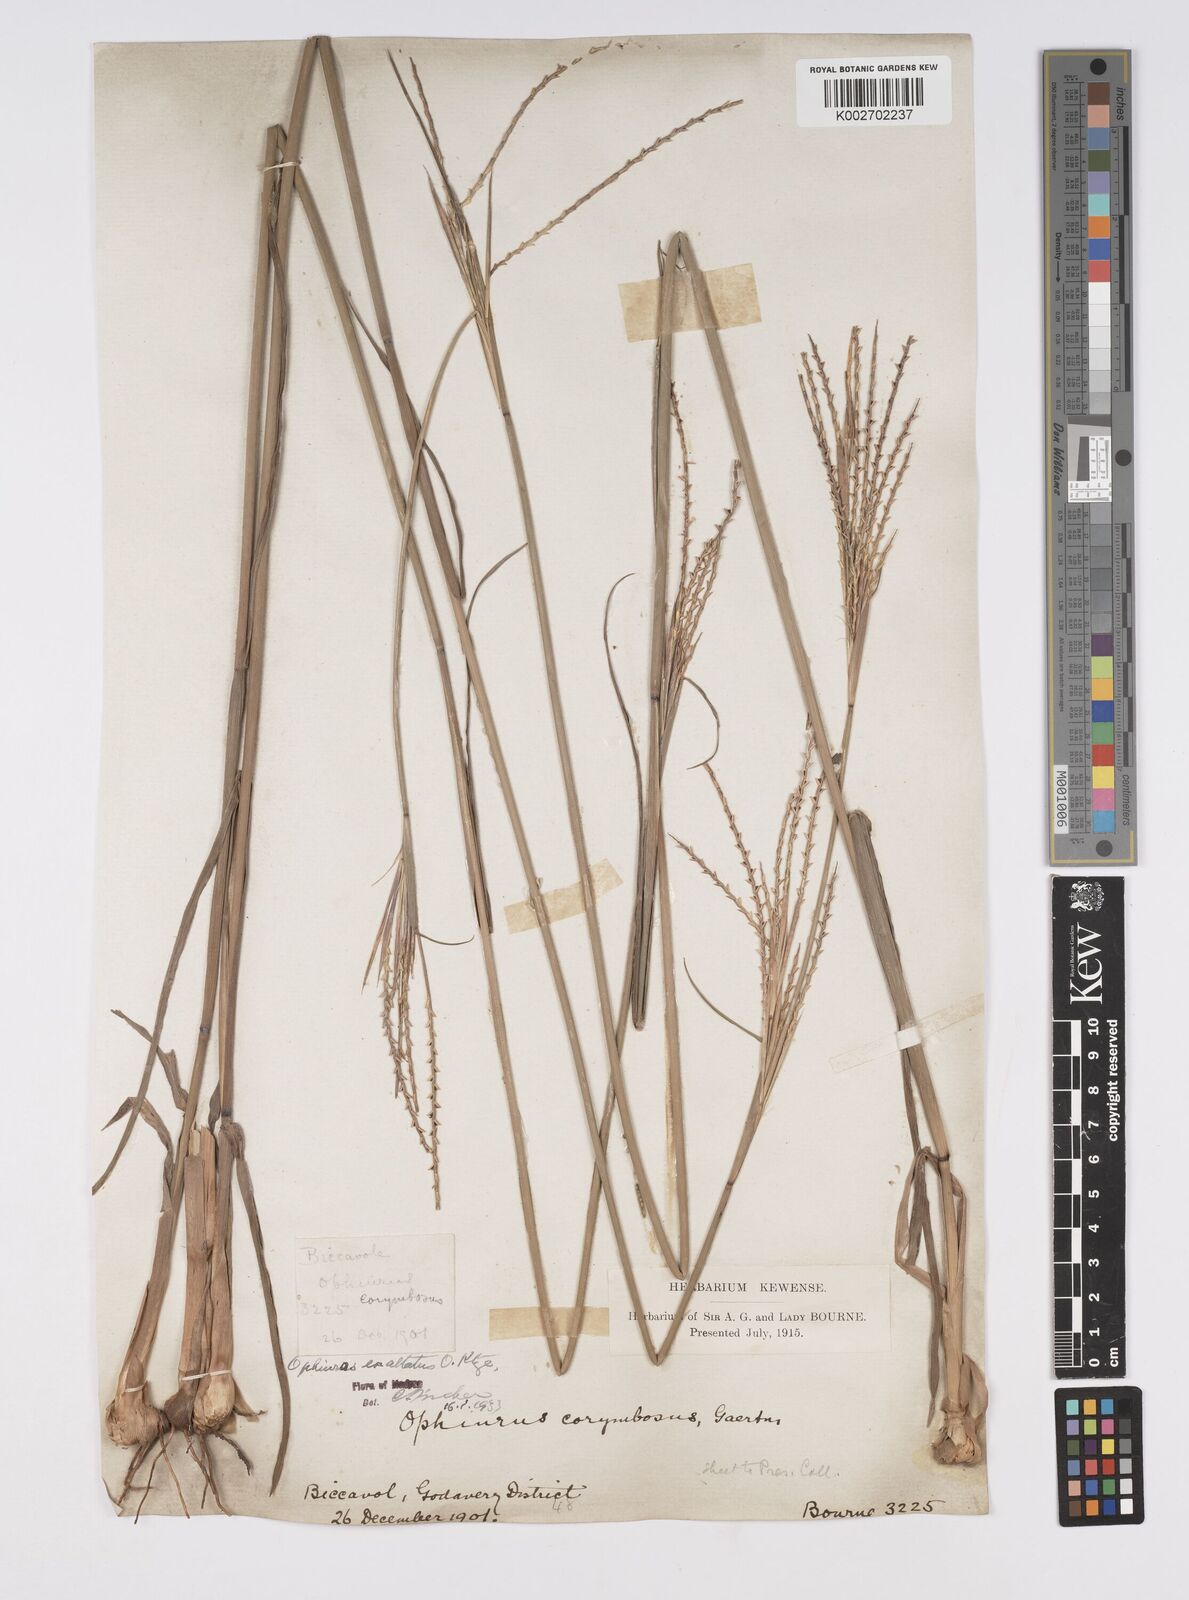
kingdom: Plantae
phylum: Tracheophyta
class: Liliopsida
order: Poales
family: Poaceae
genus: Ophiuros
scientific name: Ophiuros exaltatus
